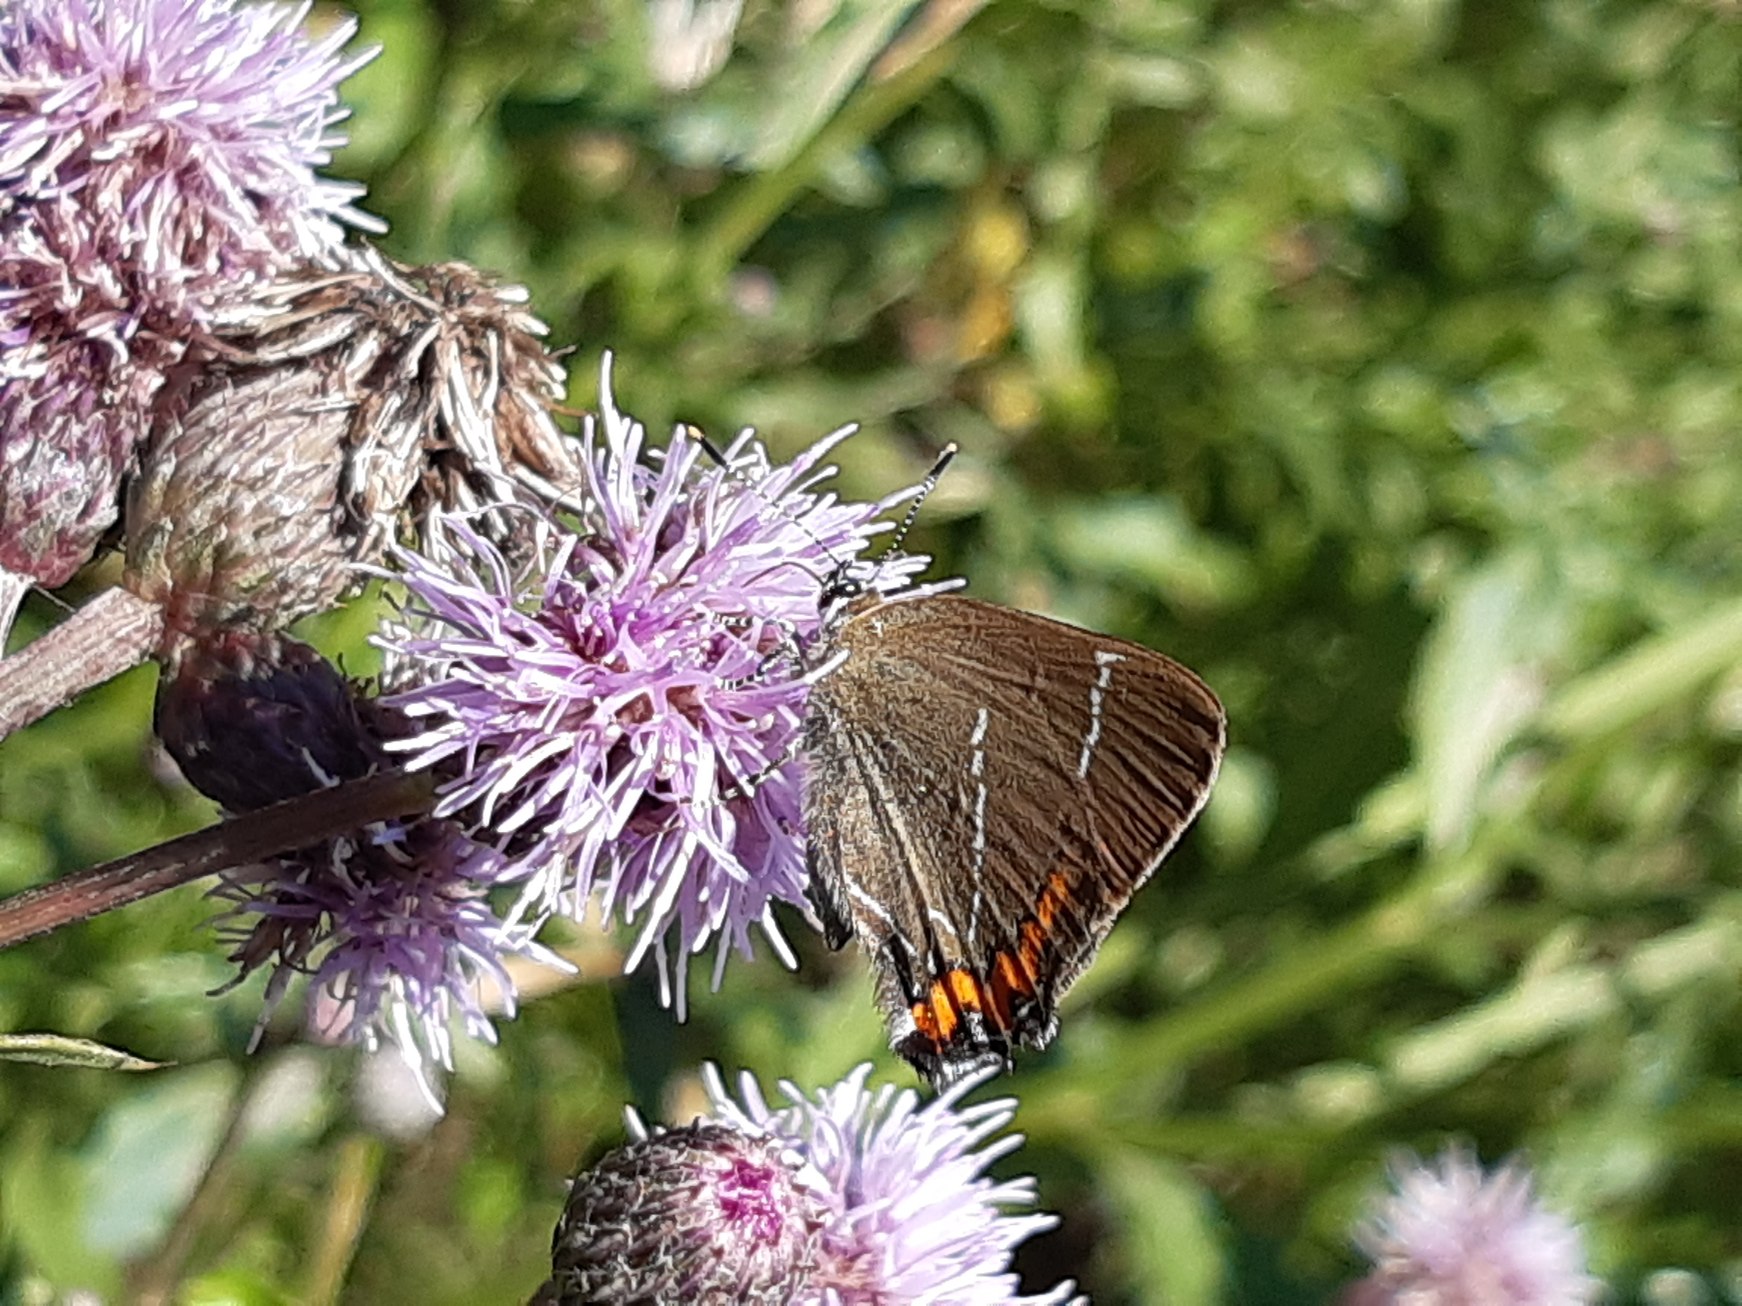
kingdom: Animalia
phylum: Arthropoda
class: Insecta
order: Lepidoptera
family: Lycaenidae
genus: Satyrium
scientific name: Satyrium w-album
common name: Det hvide W
